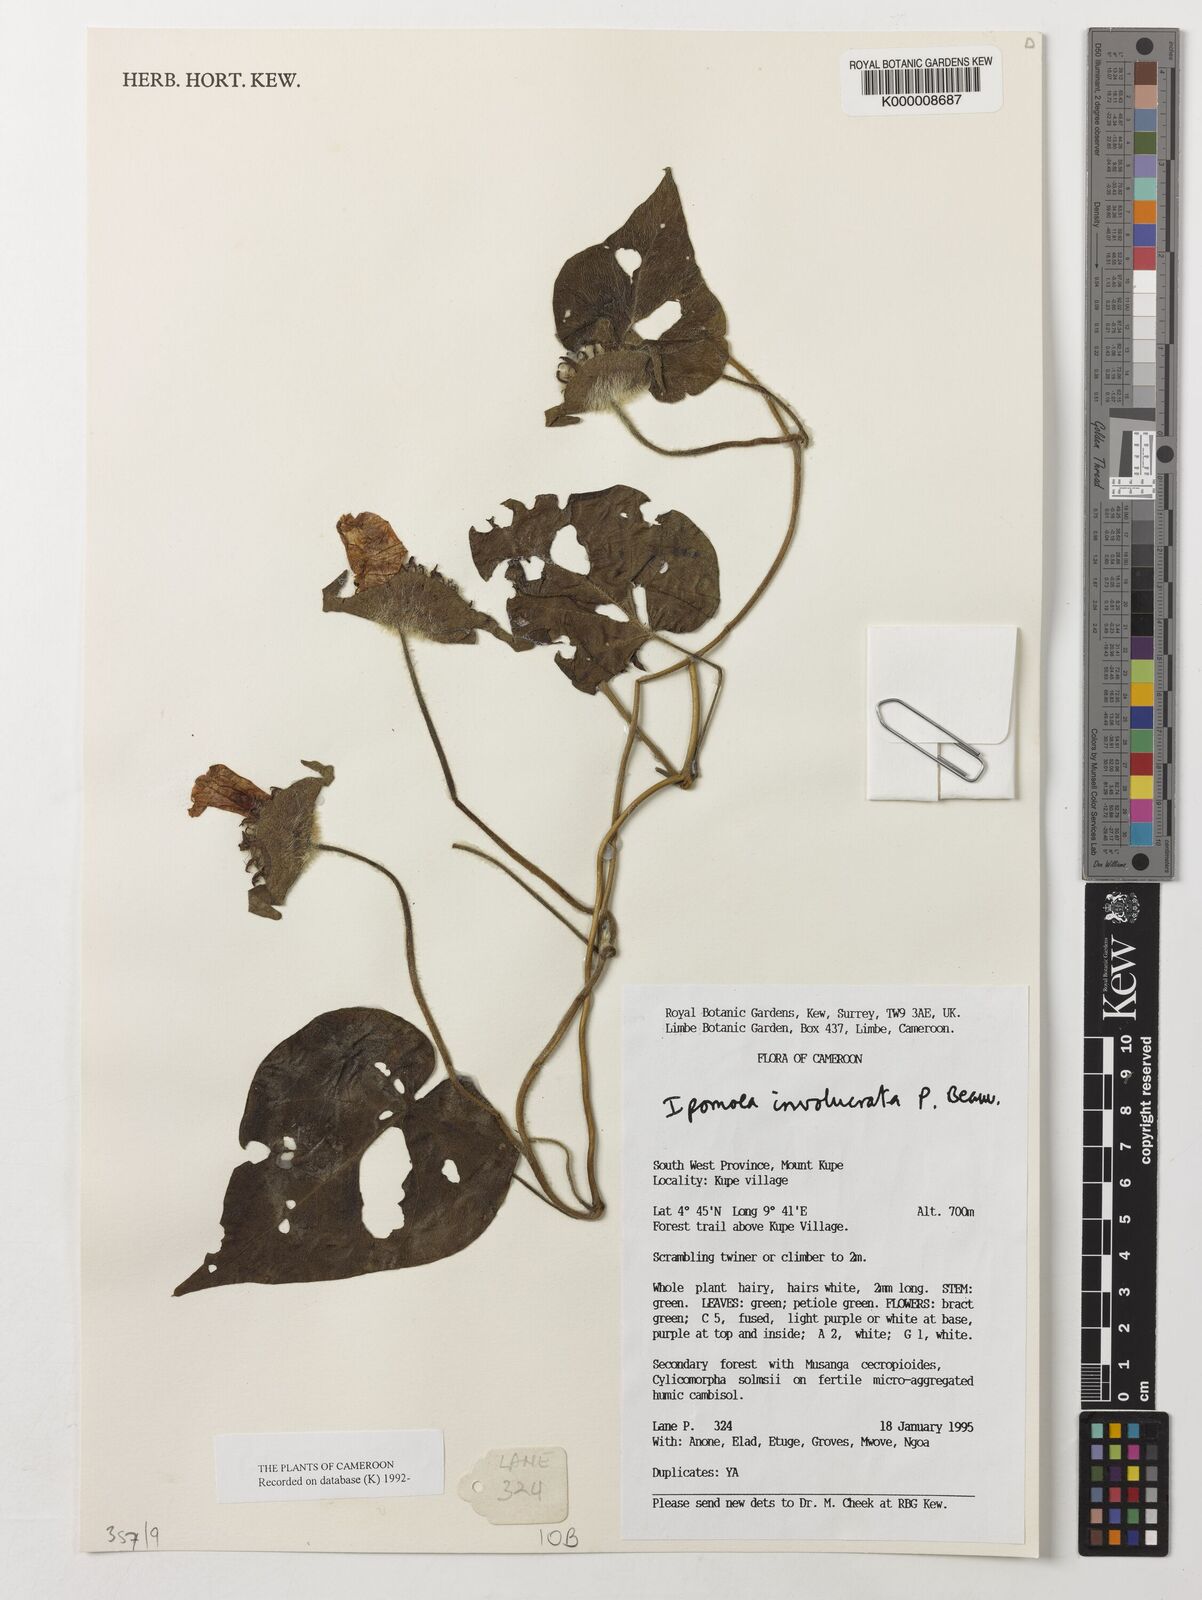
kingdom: Plantae
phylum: Tracheophyta
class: Magnoliopsida
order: Solanales
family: Convolvulaceae
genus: Ipomoea
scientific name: Ipomoea involucrata
